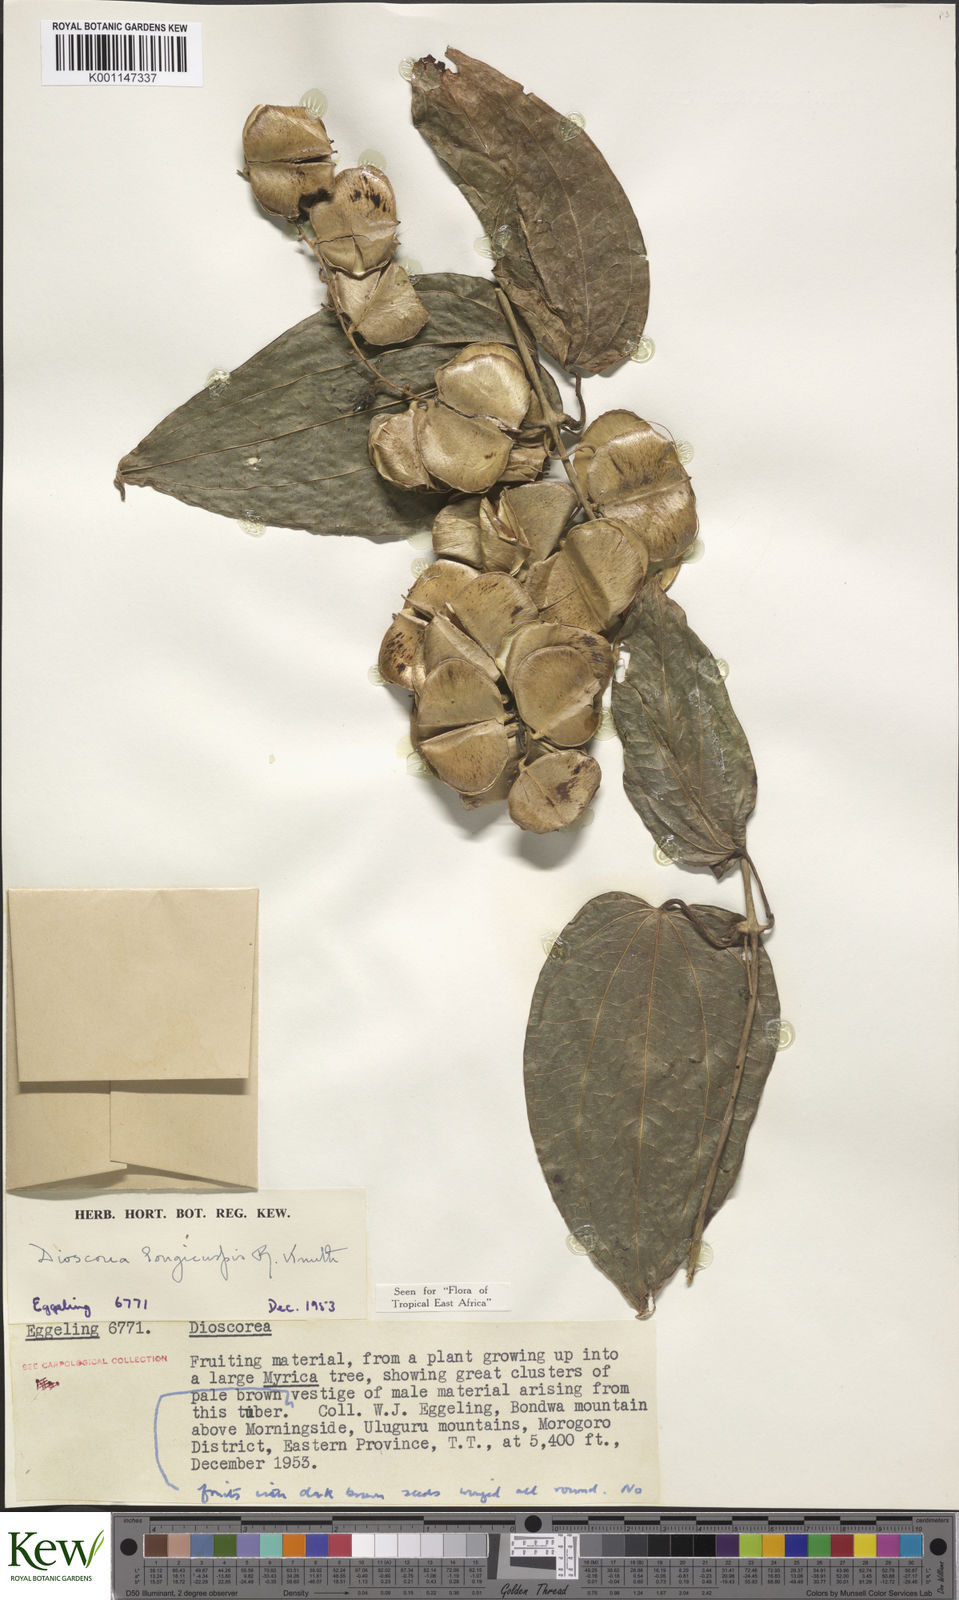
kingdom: Plantae
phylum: Tracheophyta
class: Liliopsida
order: Dioscoreales
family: Dioscoreaceae
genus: Dioscorea
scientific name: Dioscorea longicuspis
